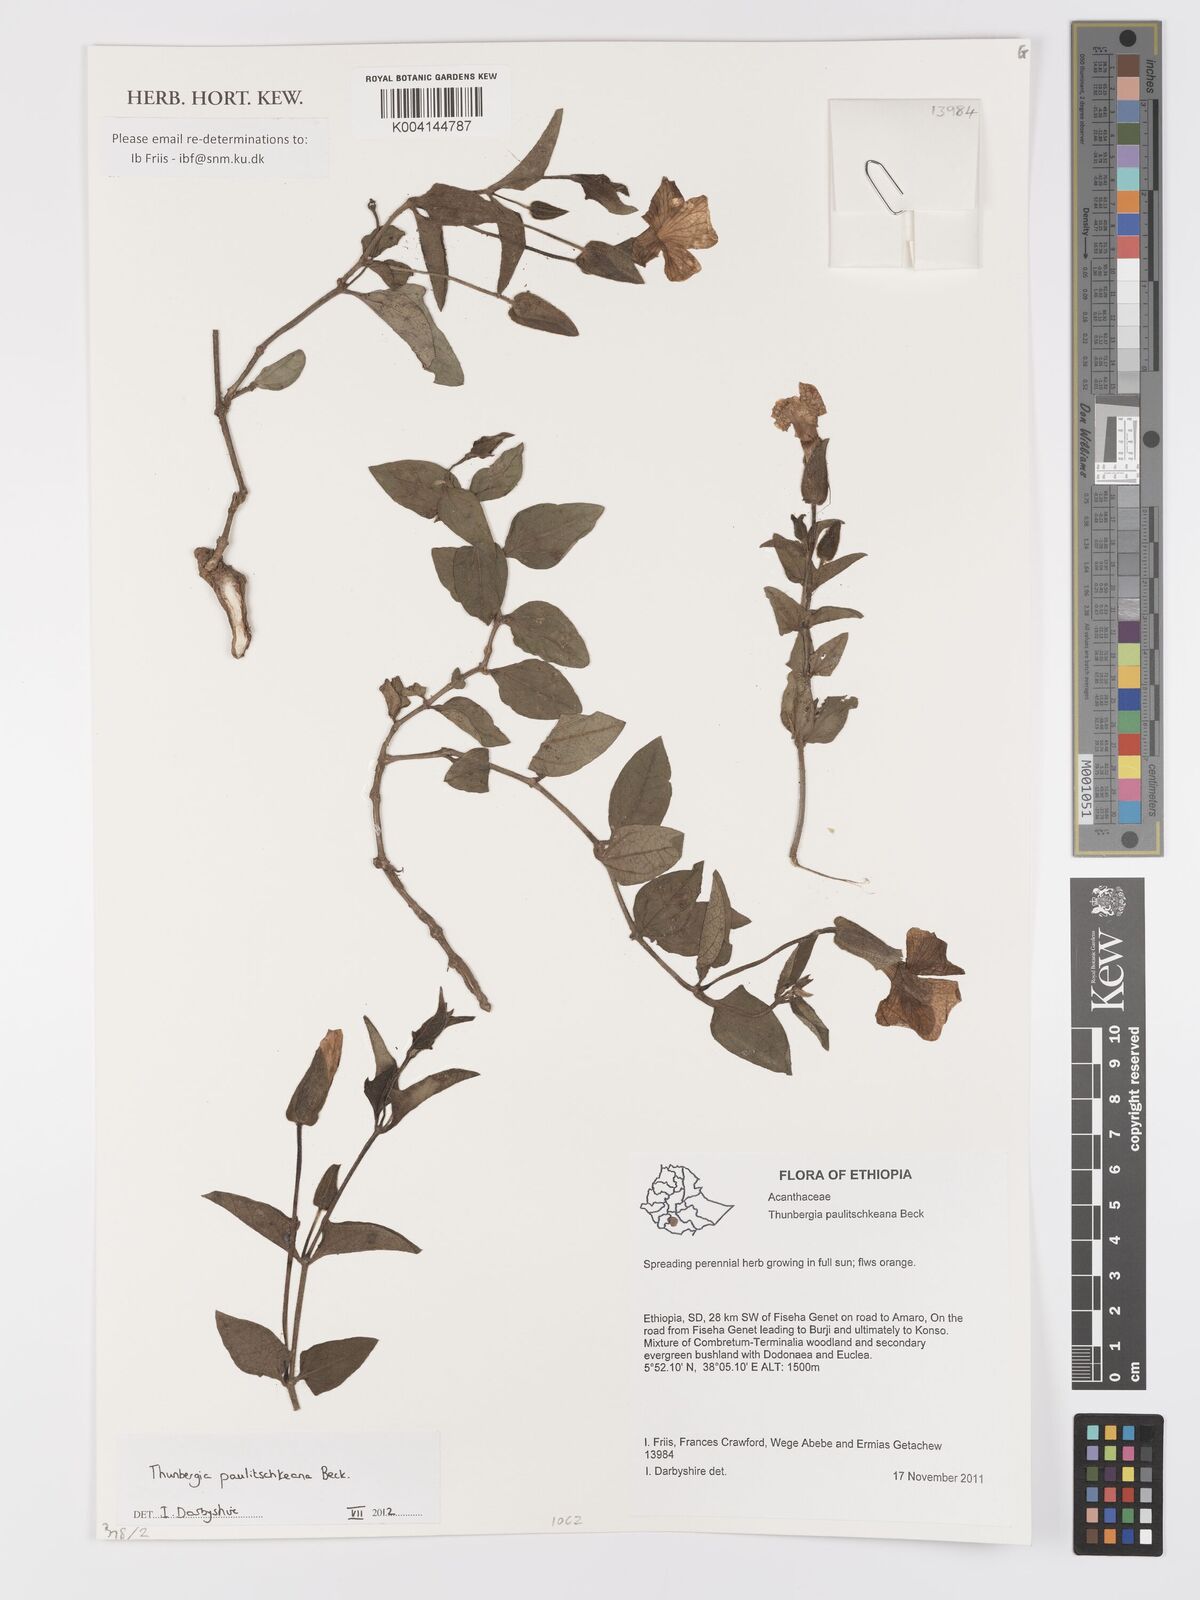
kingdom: Plantae
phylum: Tracheophyta
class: Magnoliopsida
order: Lamiales
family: Acanthaceae
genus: Thunbergia
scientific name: Thunbergia paulitschkeana
